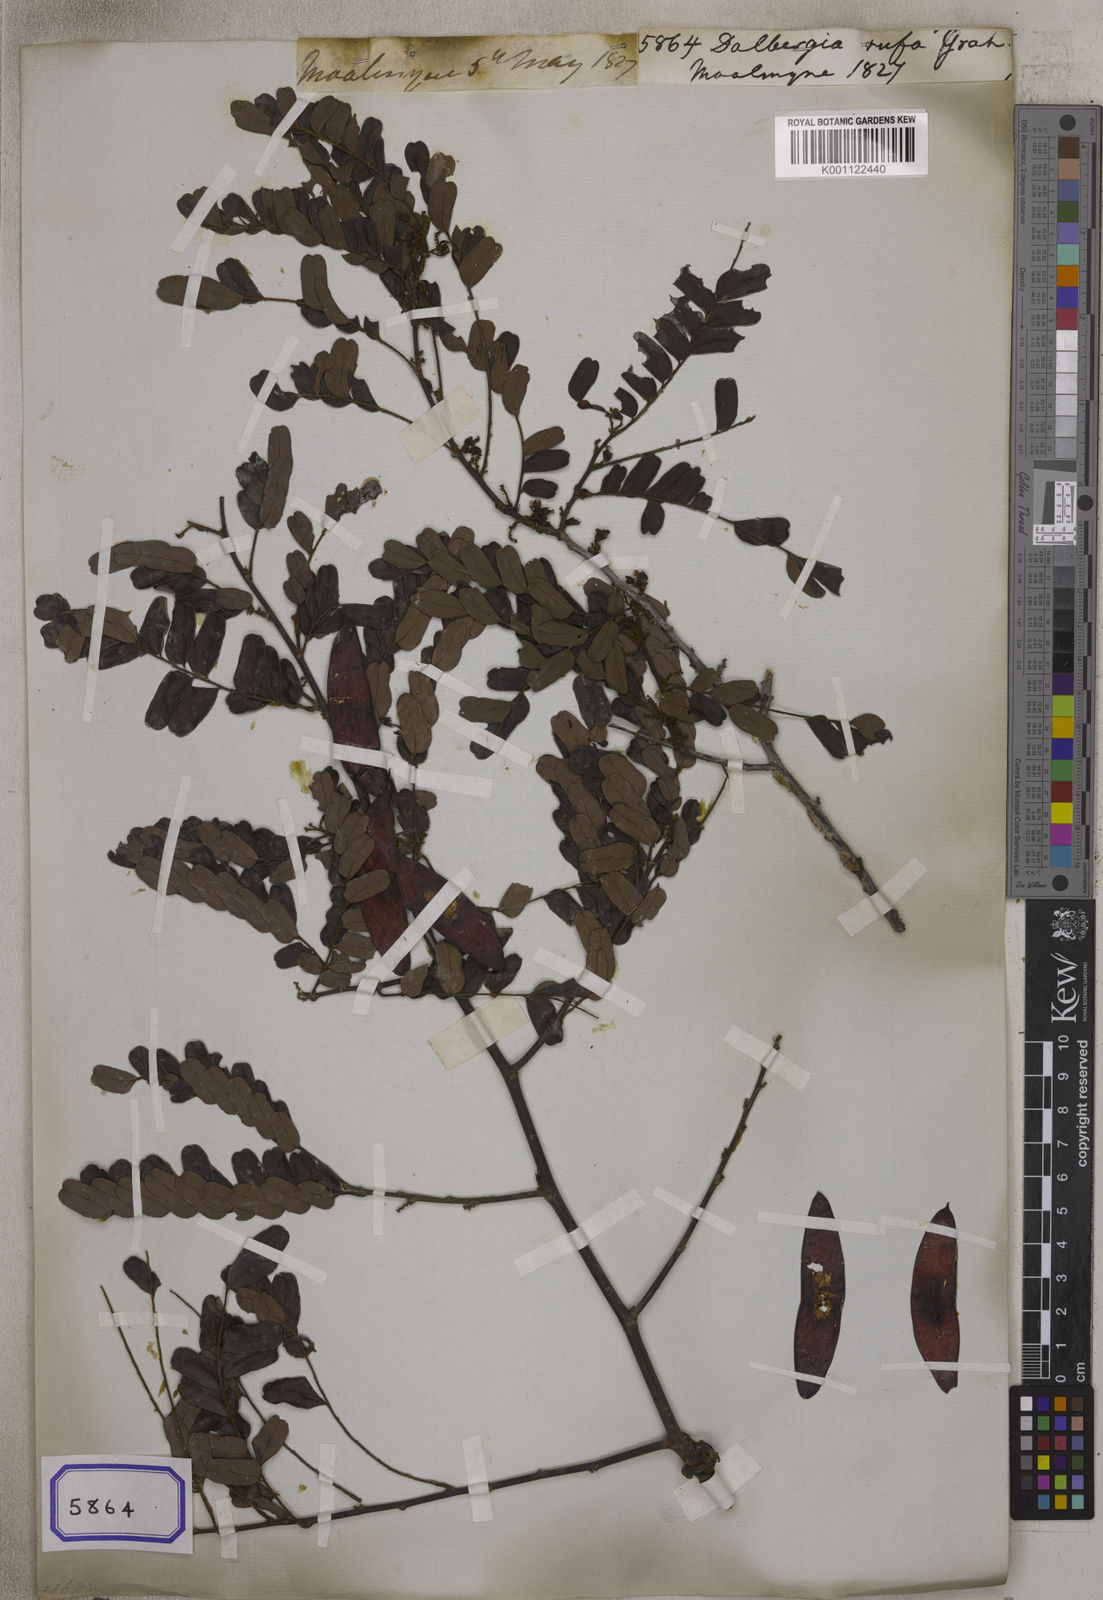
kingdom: Plantae
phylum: Tracheophyta
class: Magnoliopsida
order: Fabales
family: Fabaceae
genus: Dalbergia
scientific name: Dalbergia
